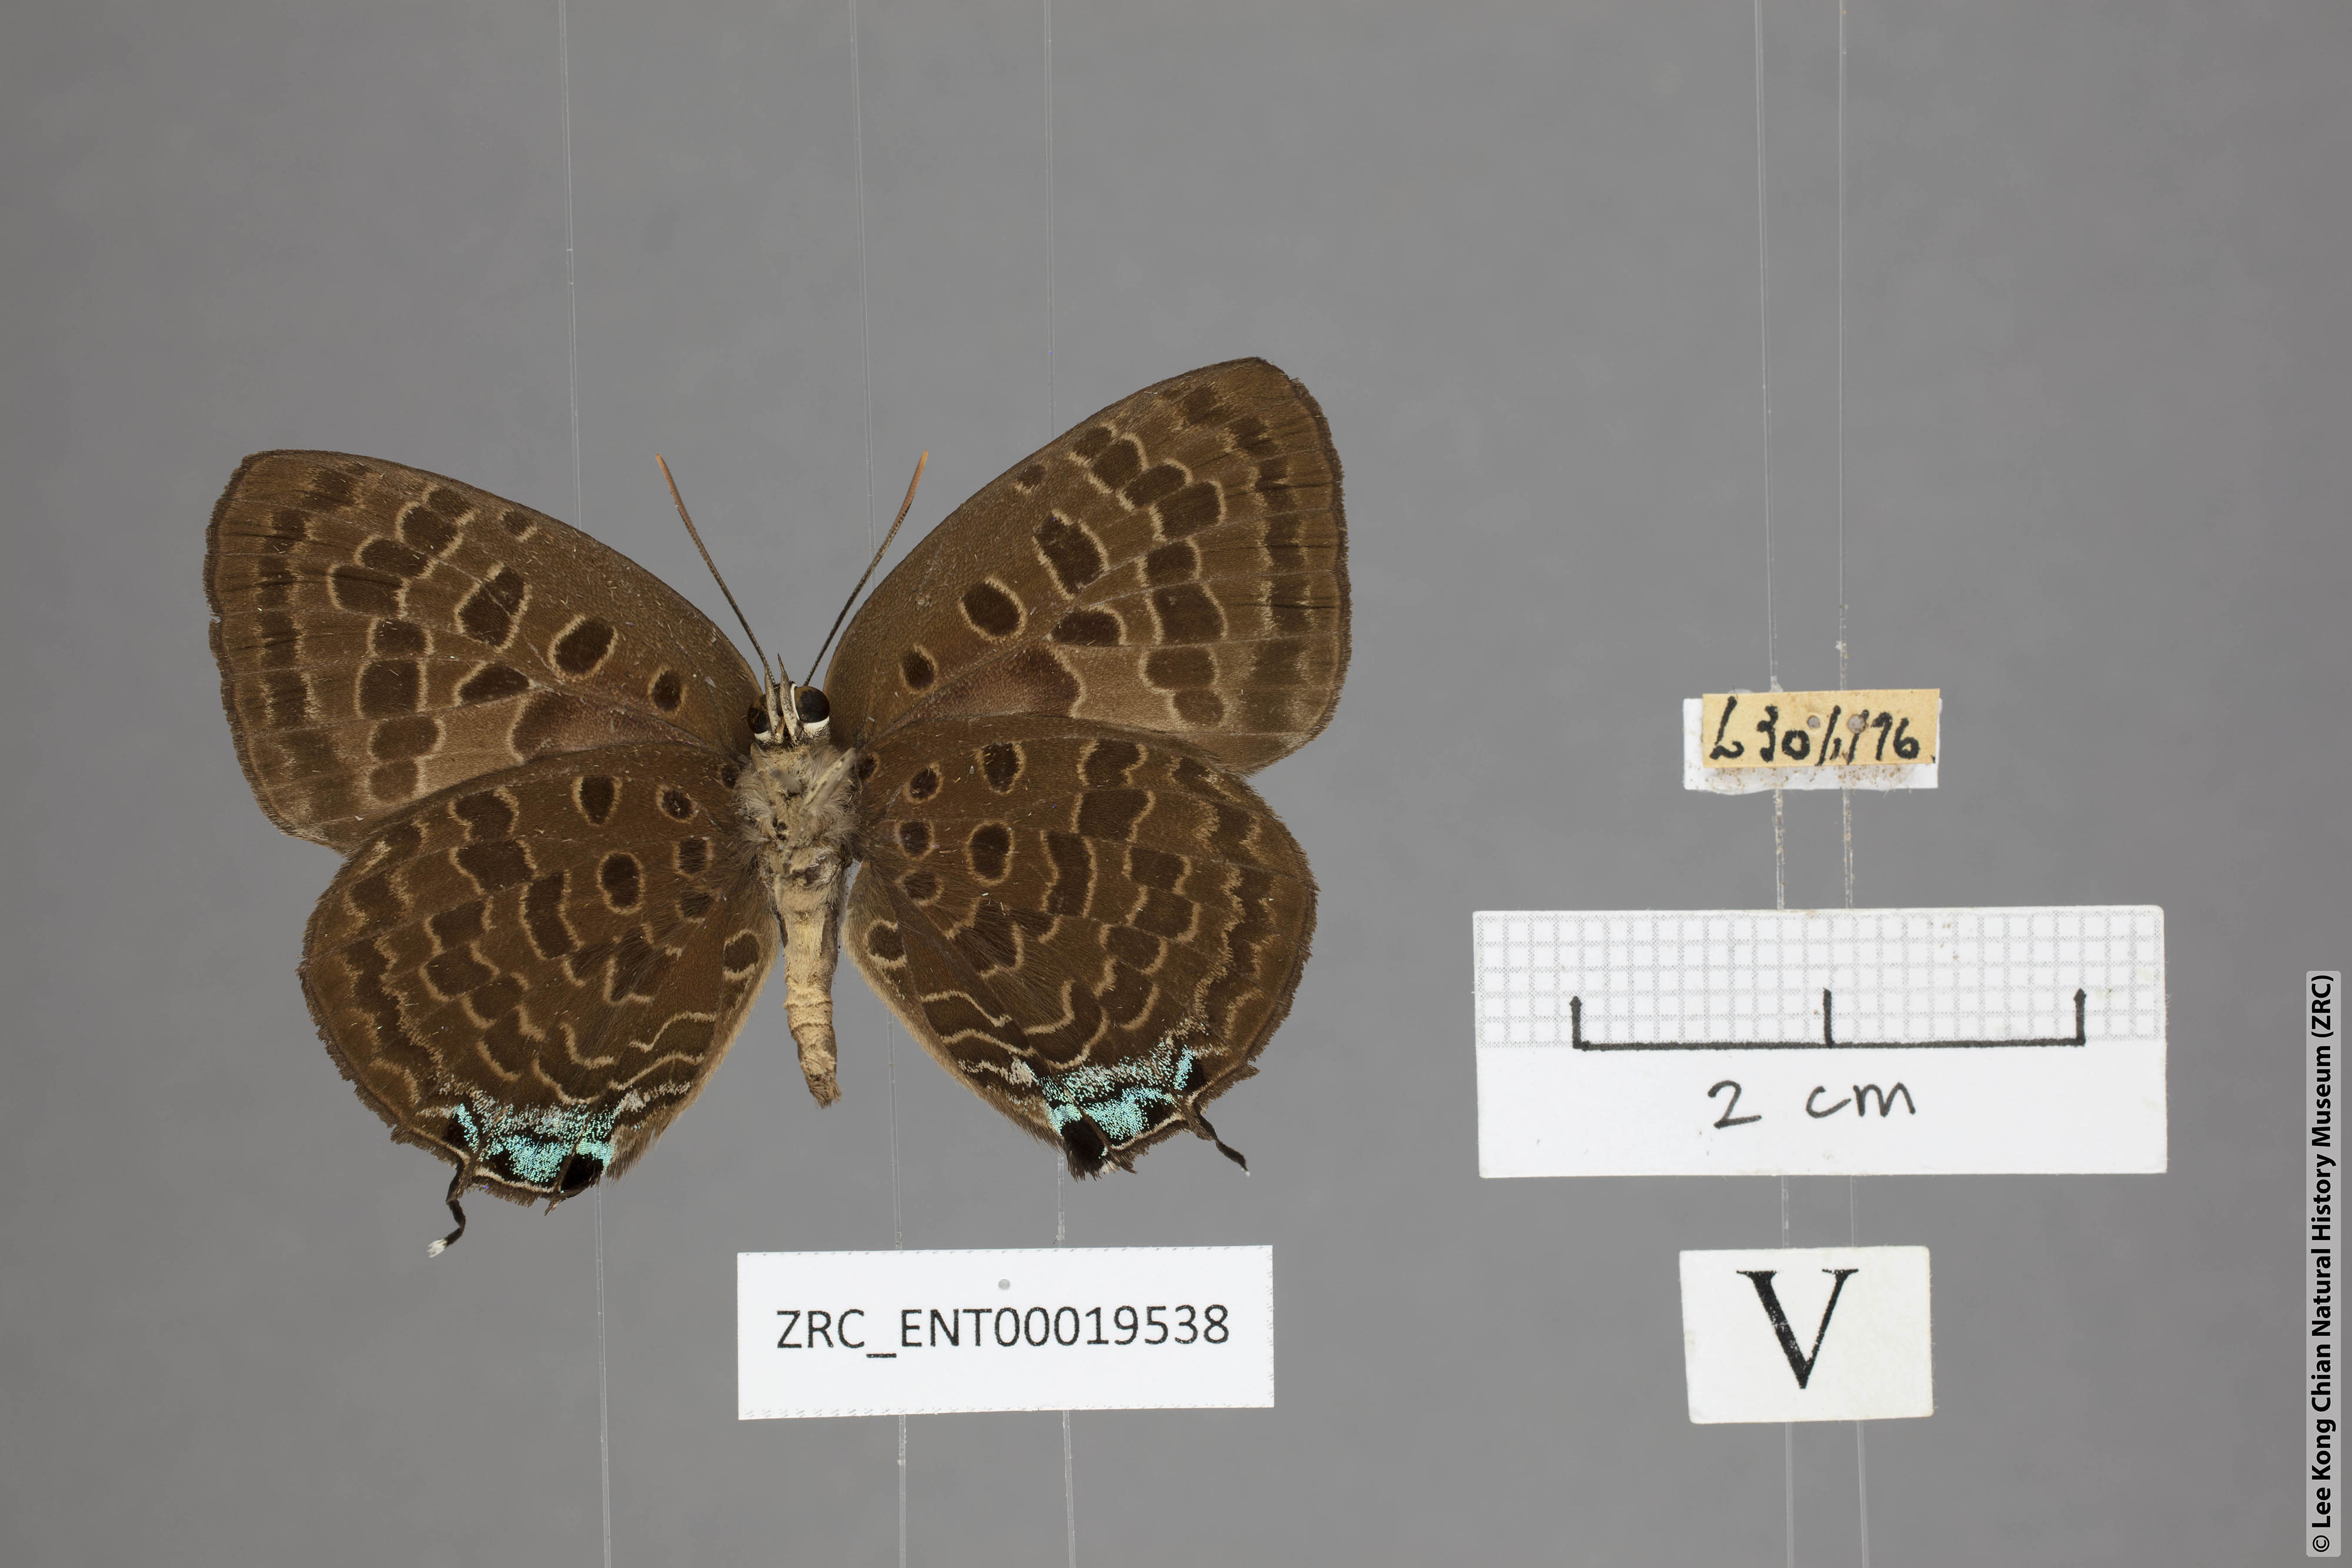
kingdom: Animalia
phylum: Arthropoda
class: Insecta
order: Lepidoptera
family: Lycaenidae
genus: Arhopala
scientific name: Arhopala horsfieldi
